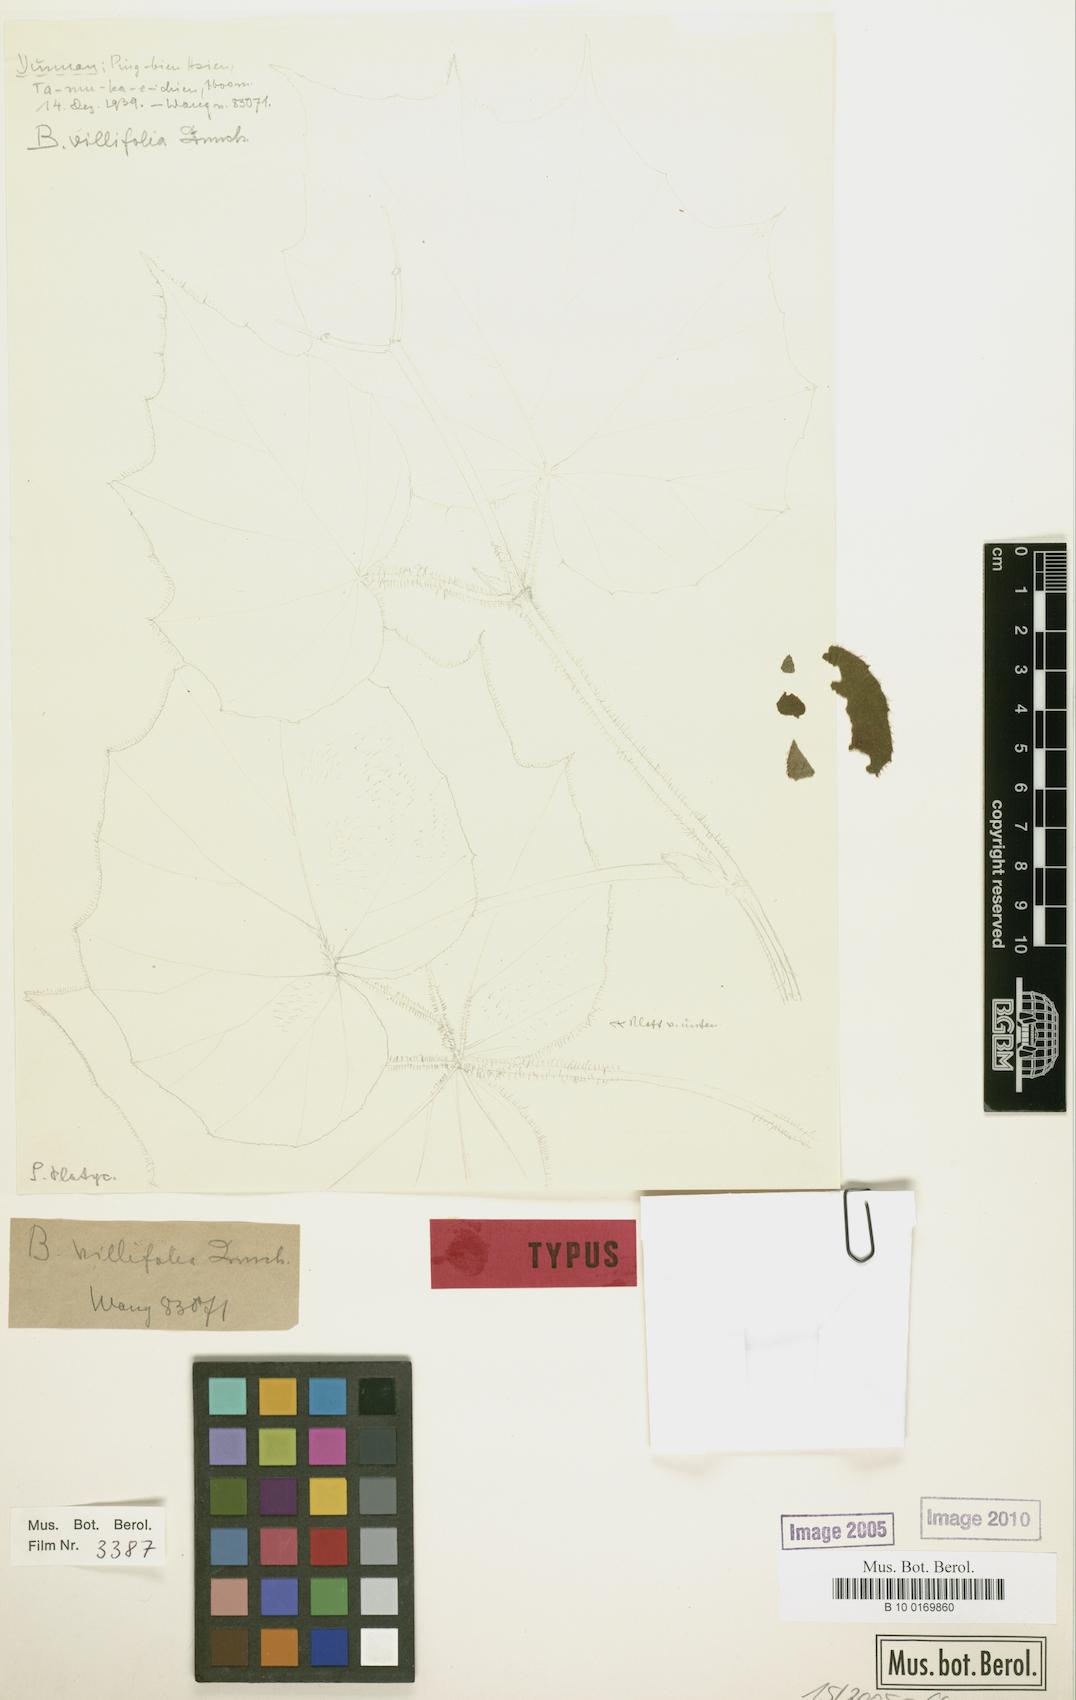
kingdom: Plantae
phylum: Tracheophyta
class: Magnoliopsida
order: Cucurbitales
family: Begoniaceae
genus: Begonia
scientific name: Begonia villifolia
